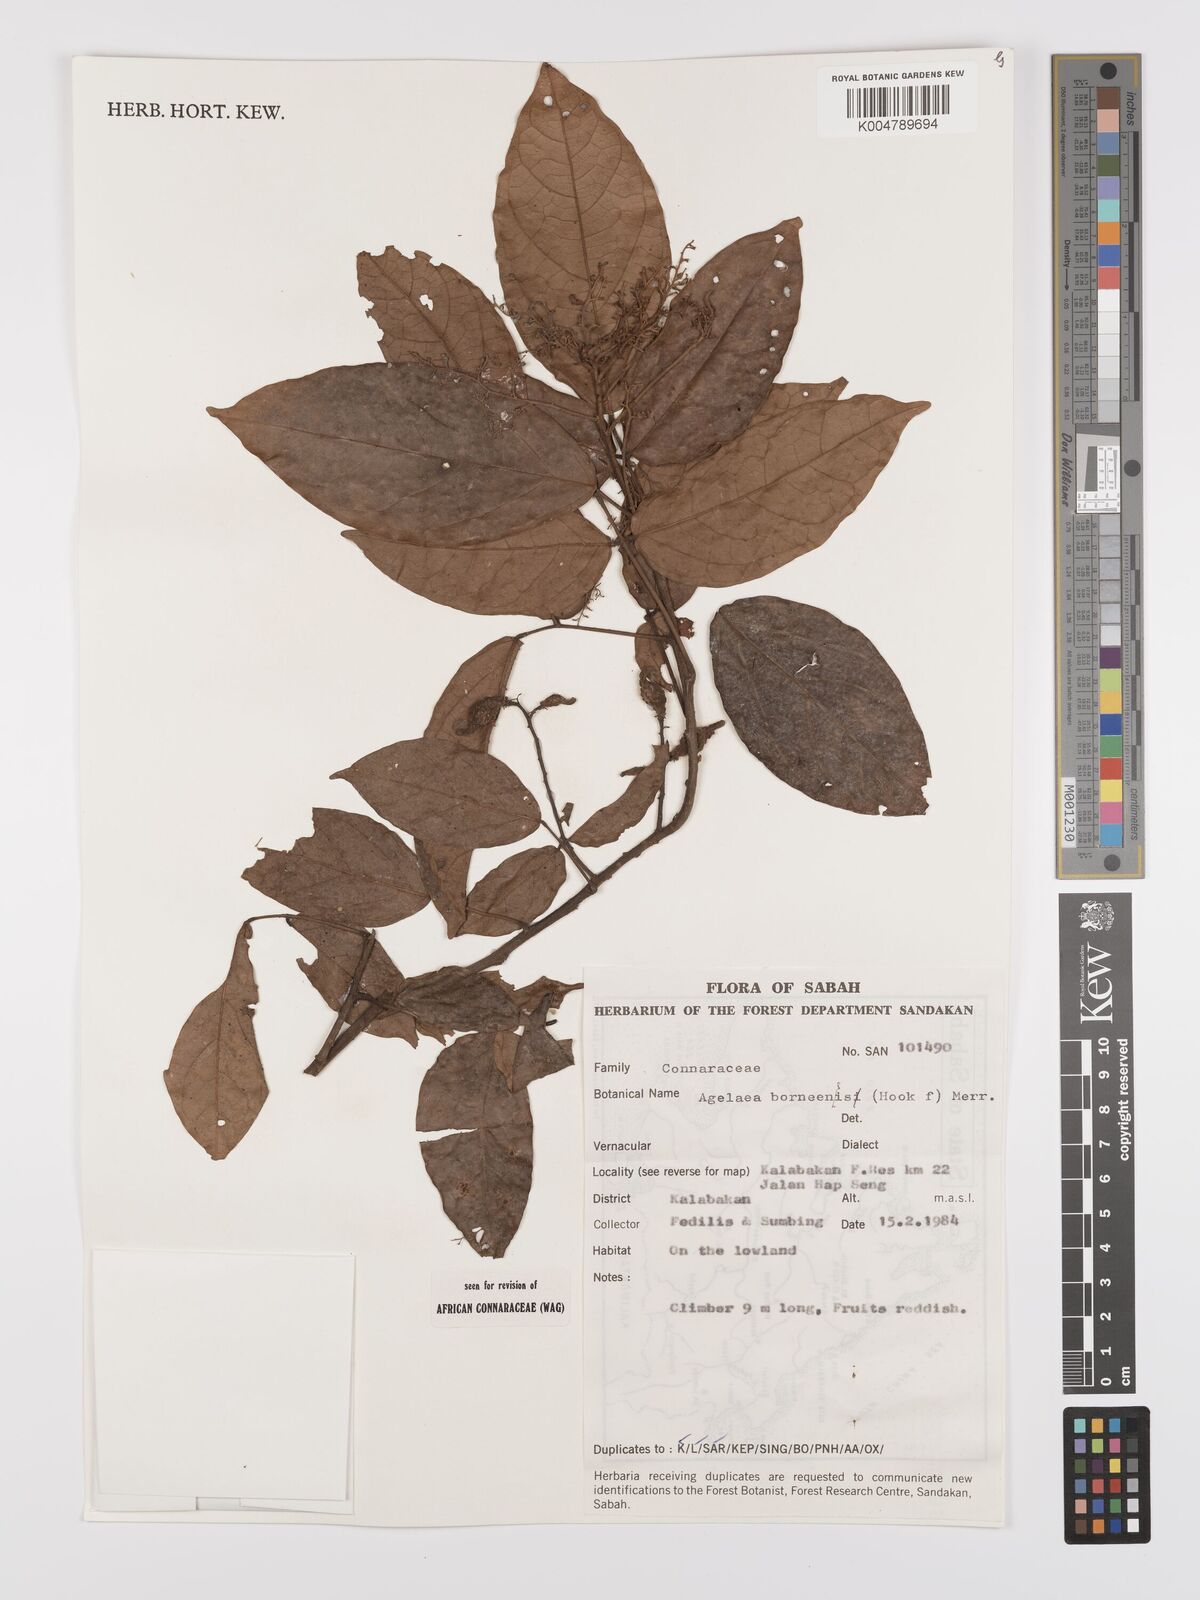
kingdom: Plantae
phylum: Tracheophyta
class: Magnoliopsida
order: Oxalidales
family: Connaraceae
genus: Agelaea
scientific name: Agelaea borneensis
